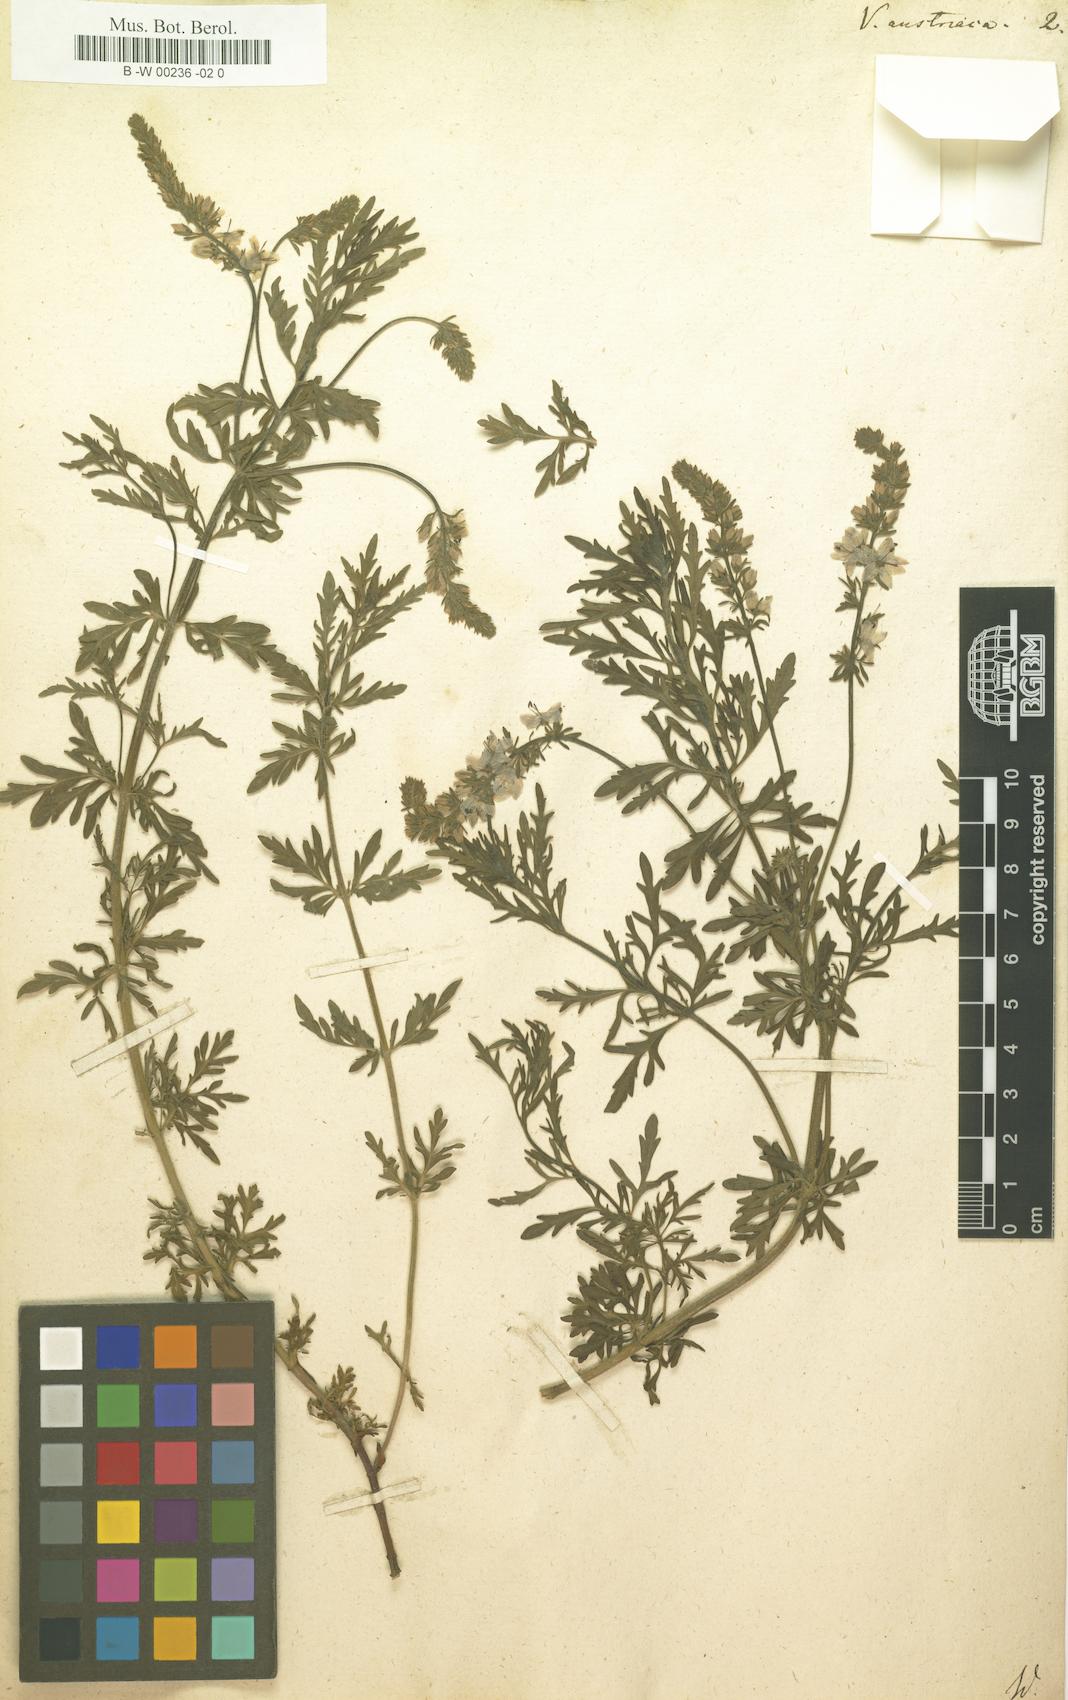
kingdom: Plantae
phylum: Tracheophyta
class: Magnoliopsida
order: Lamiales
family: Plantaginaceae
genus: Veronica
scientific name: Veronica austriaca
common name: Large speedwell
